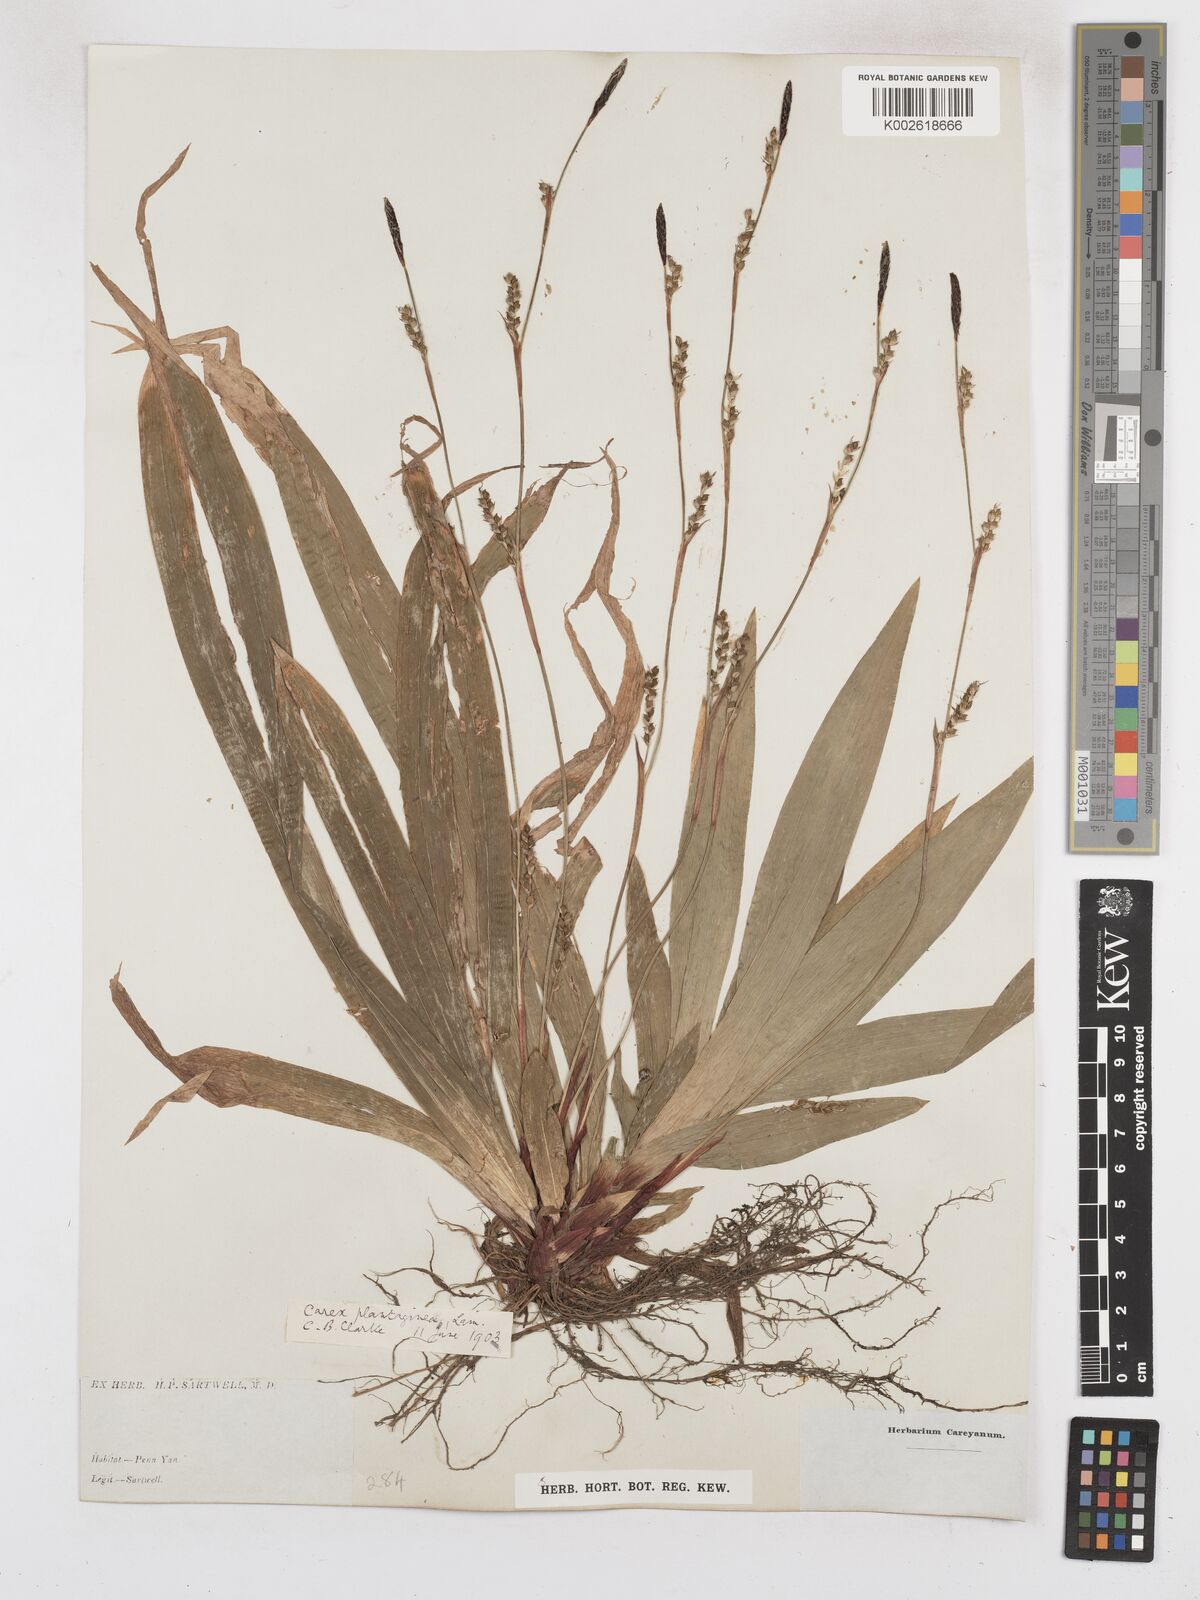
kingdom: Plantae
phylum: Tracheophyta
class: Liliopsida
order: Poales
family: Cyperaceae
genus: Carex
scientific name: Carex plantaginea
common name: Plantain-leaved sedge
